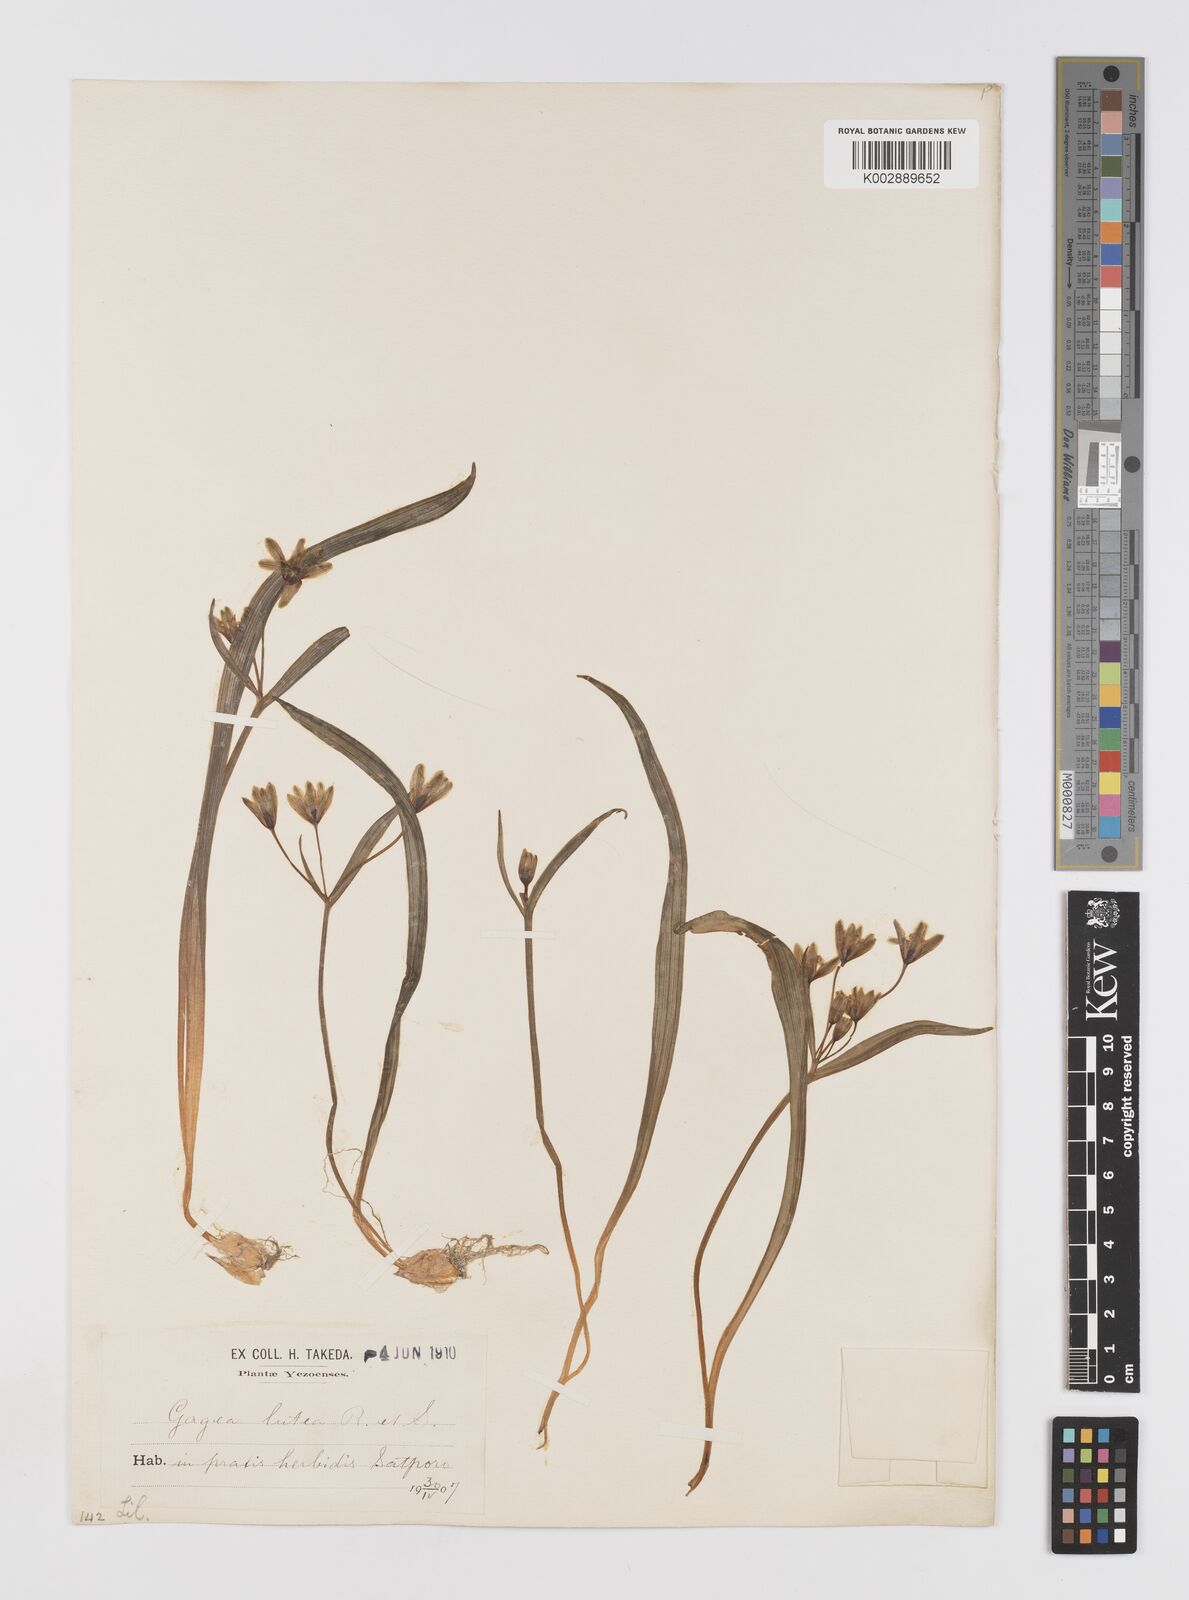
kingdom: Plantae
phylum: Tracheophyta
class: Liliopsida
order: Liliales
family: Liliaceae
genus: Gagea
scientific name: Gagea lutea
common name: Yellow star-of-bethlehem
